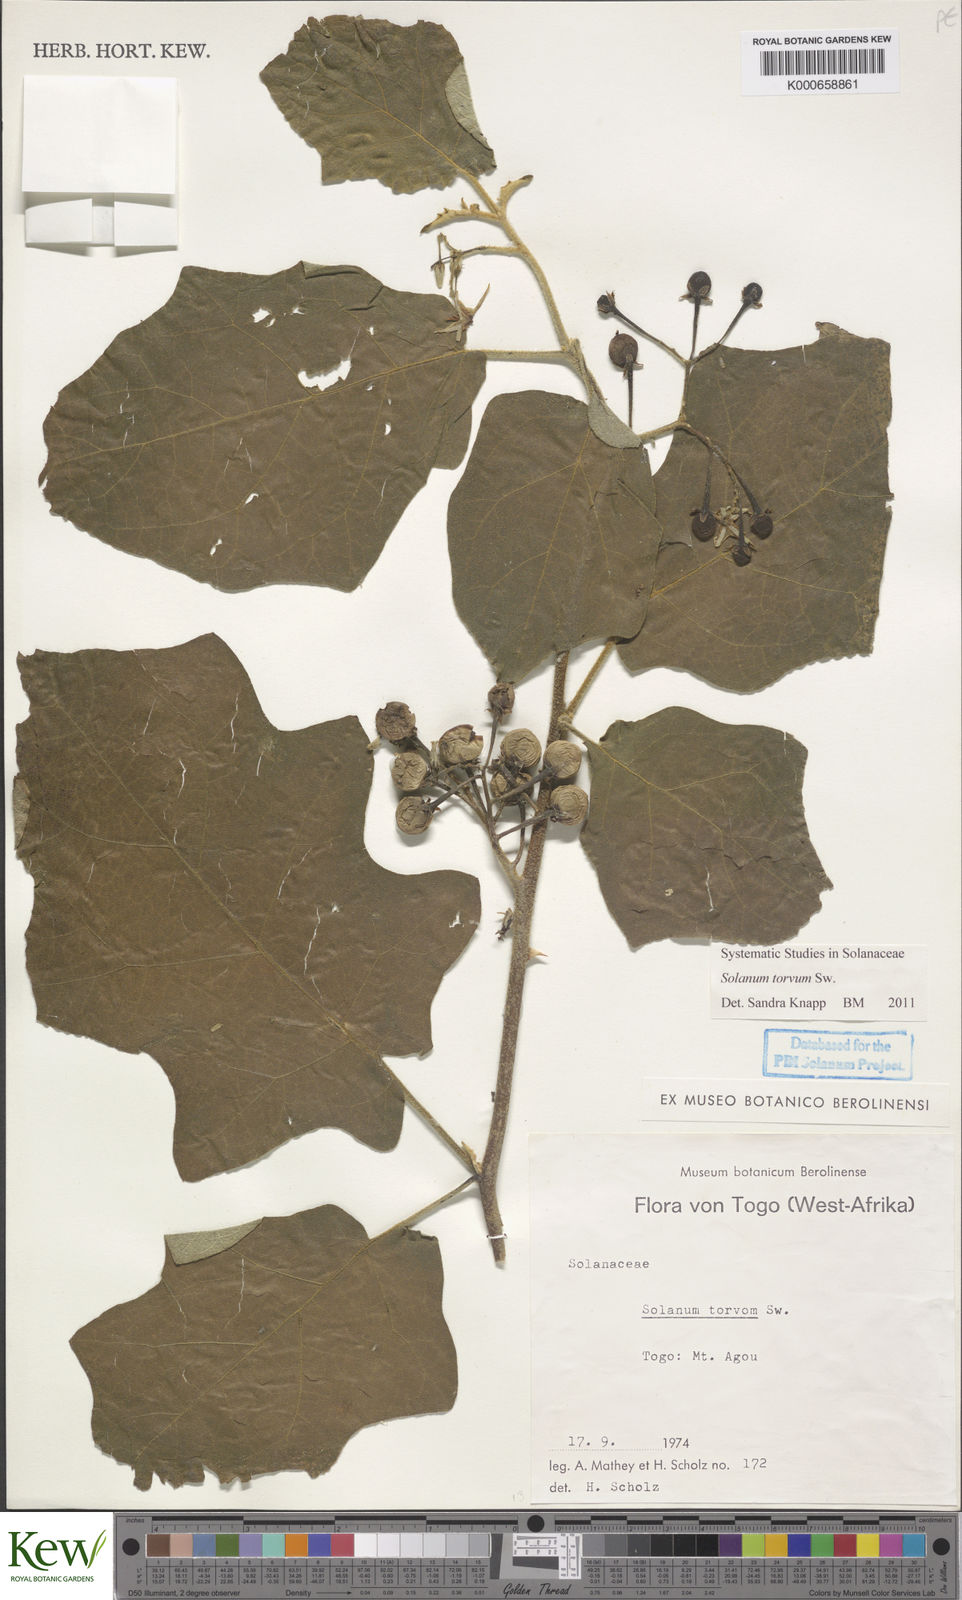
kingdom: Plantae
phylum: Tracheophyta
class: Magnoliopsida
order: Solanales
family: Solanaceae
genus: Solanum
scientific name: Solanum torvum
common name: Turkey berry
